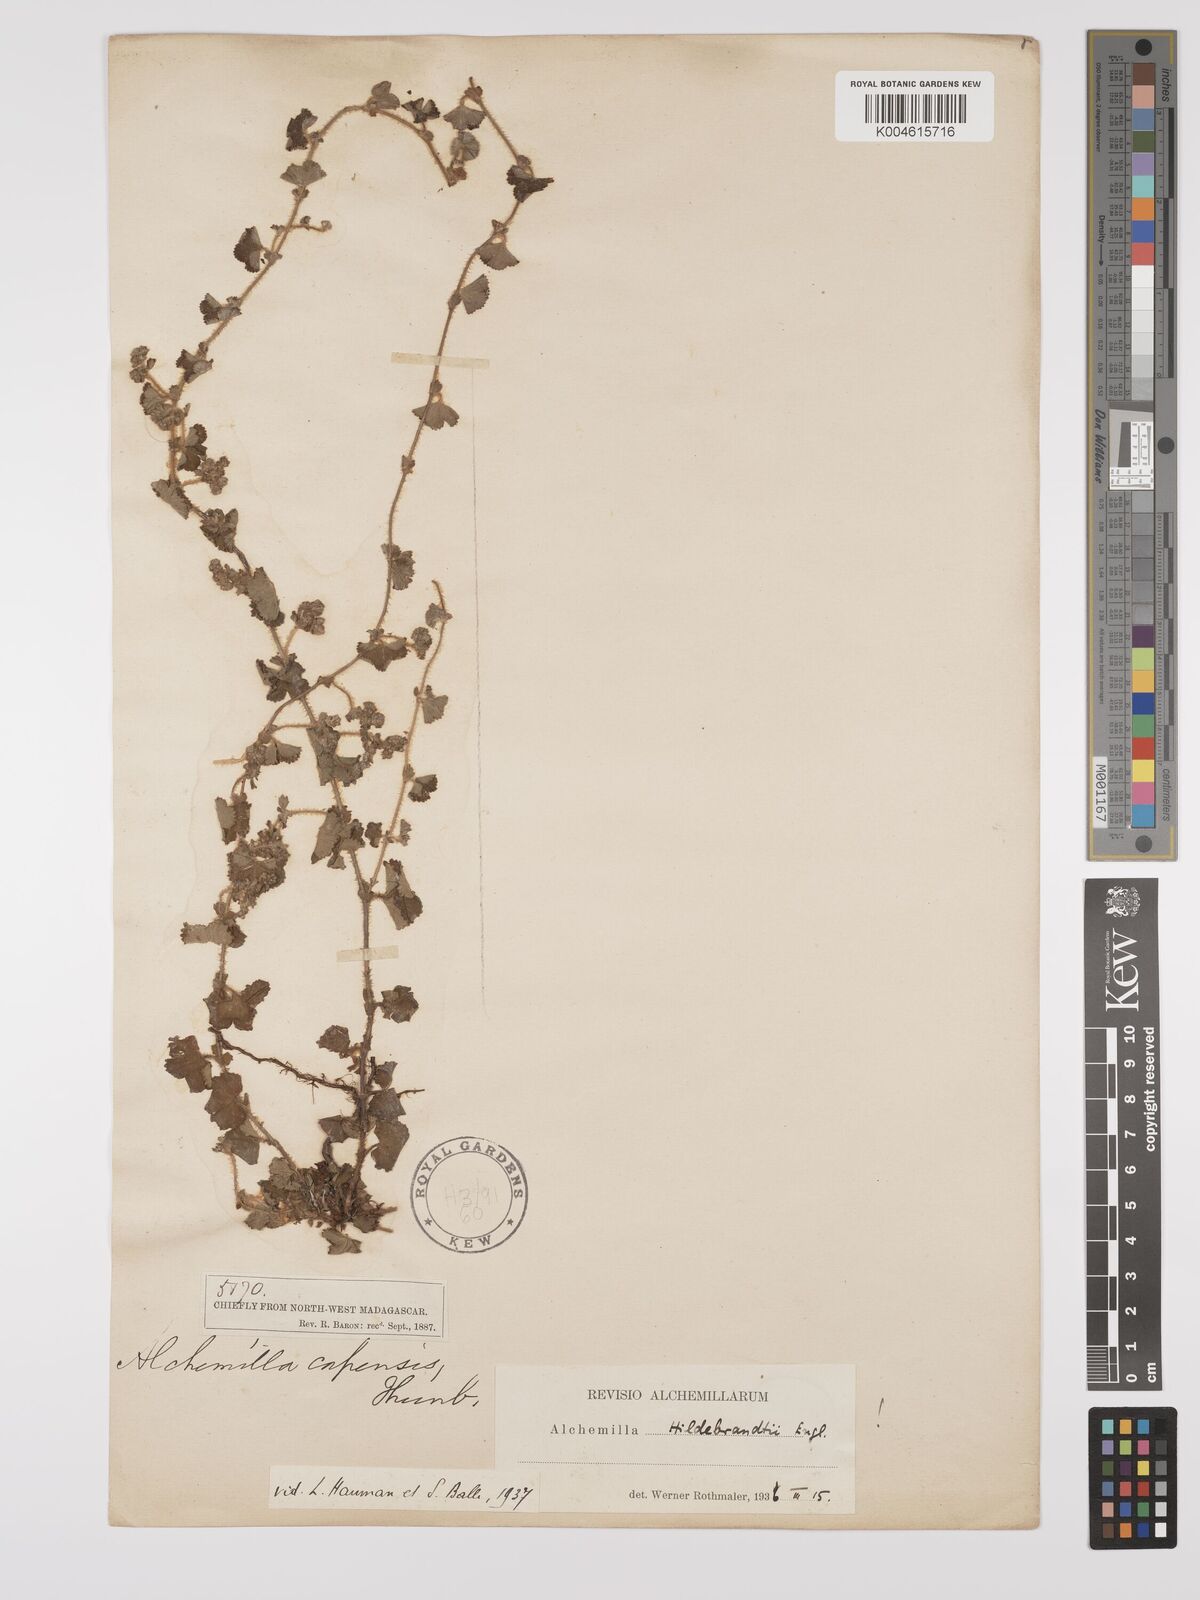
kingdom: Plantae
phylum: Tracheophyta
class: Magnoliopsida
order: Rosales
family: Rosaceae
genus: Alchemilla
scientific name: Alchemilla schizophylla
